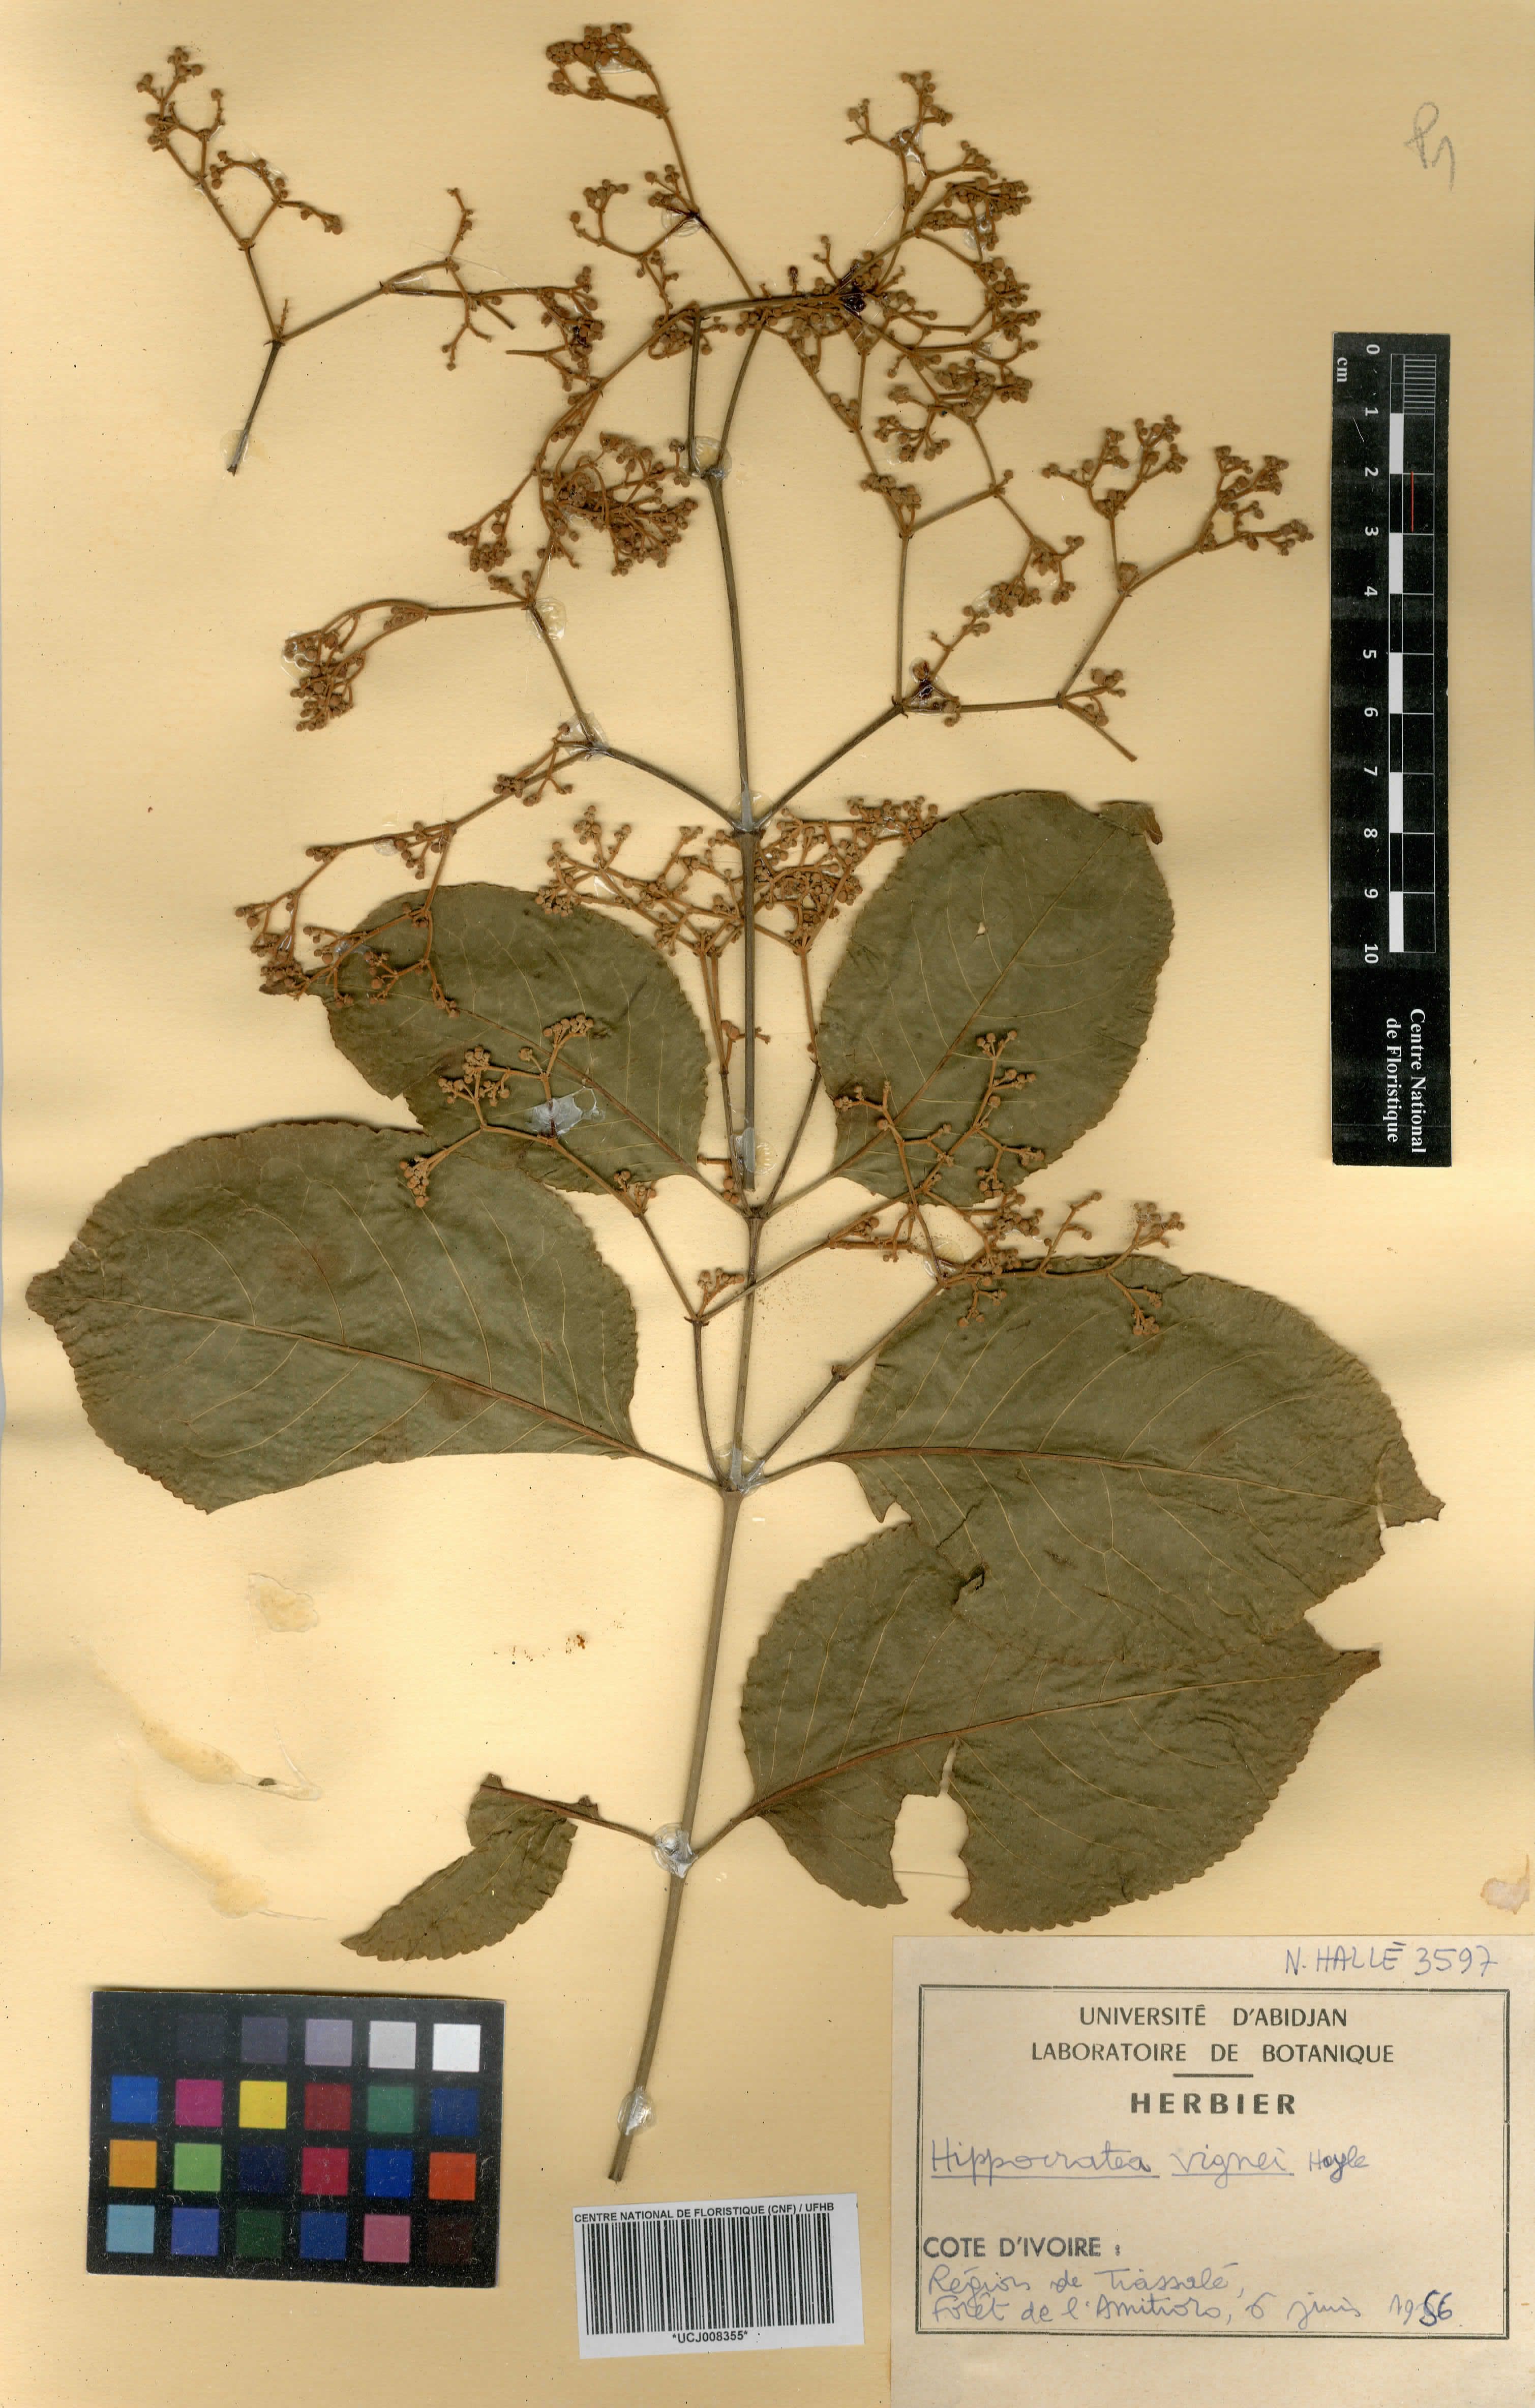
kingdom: Plantae
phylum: Tracheophyta
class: Magnoliopsida
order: Celastrales
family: Celastraceae
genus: Hippocratea
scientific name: Hippocratea
